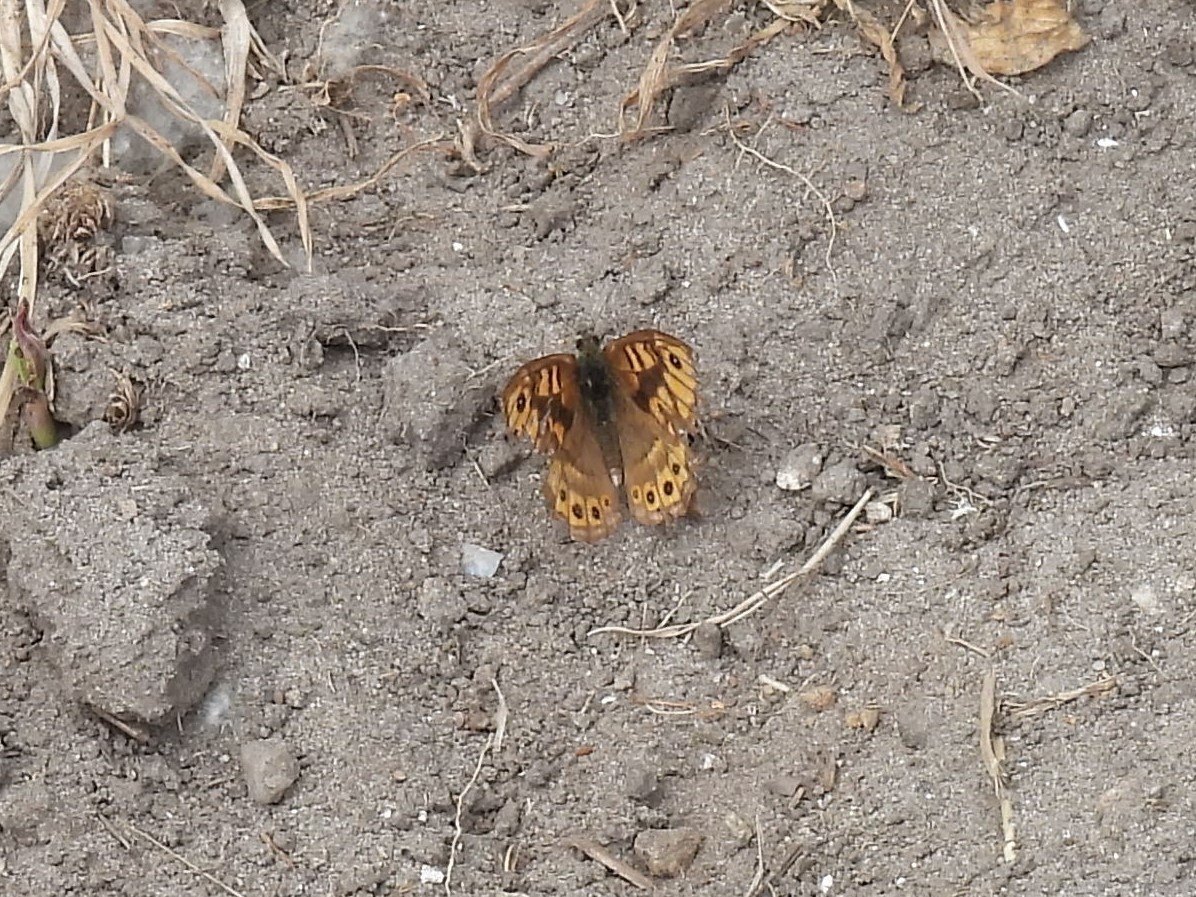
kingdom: Animalia
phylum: Arthropoda
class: Insecta
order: Lepidoptera
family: Nymphalidae
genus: Pararge
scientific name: Pararge Lasiommata megera
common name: Vejrandøje
